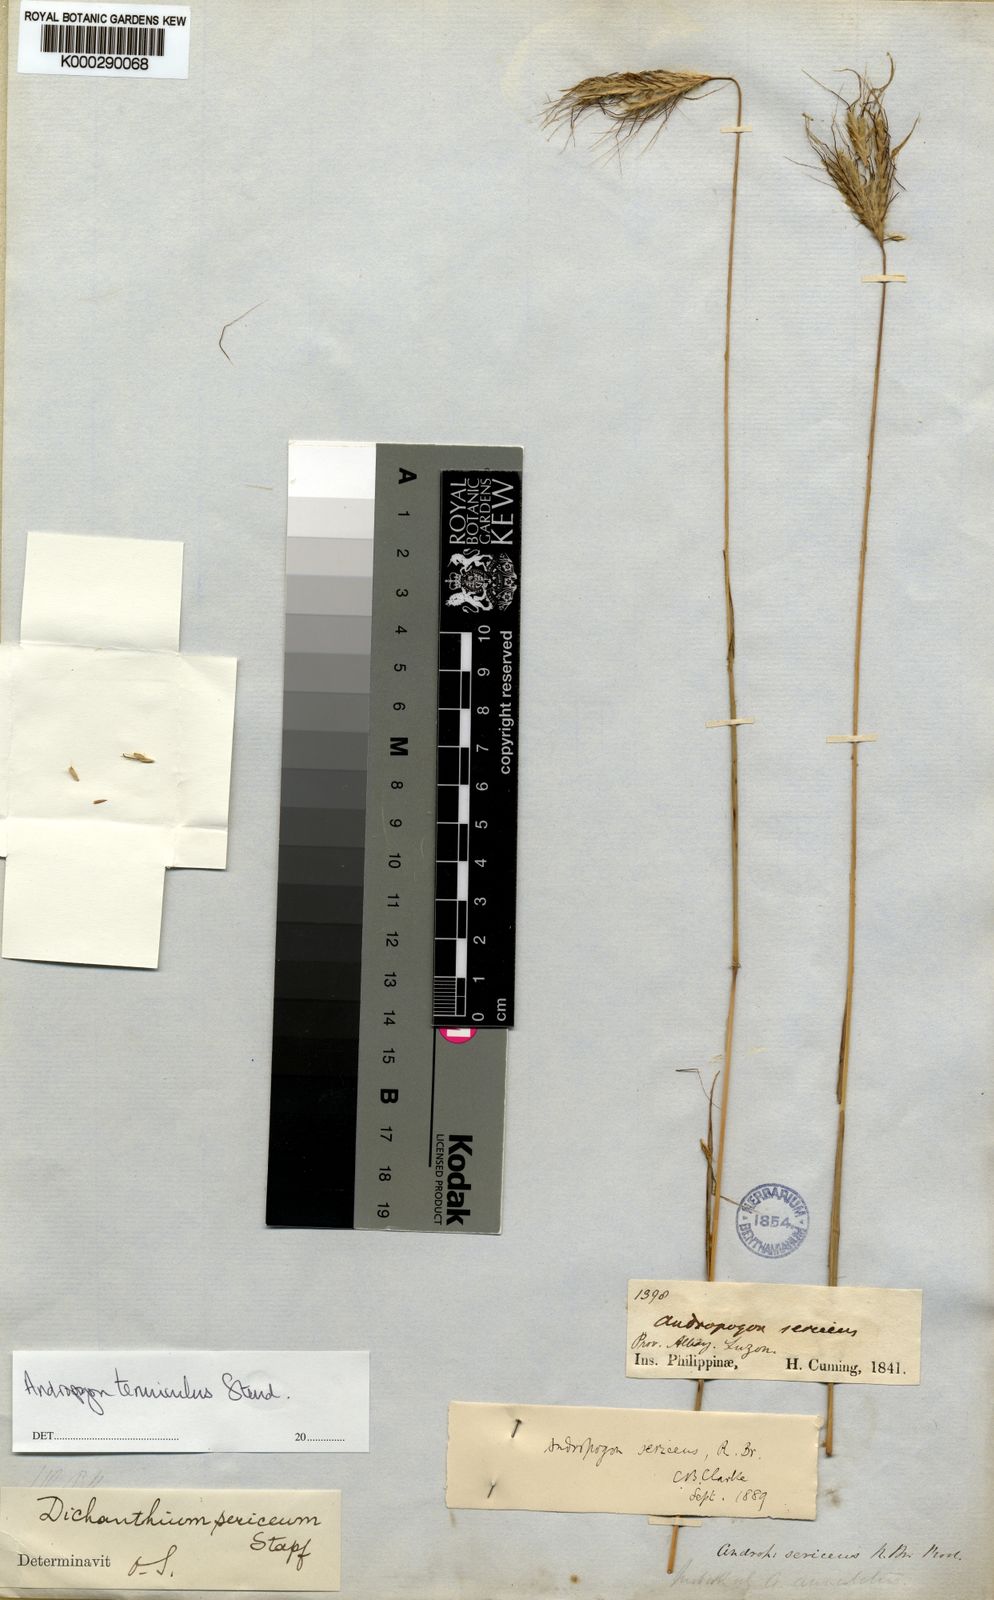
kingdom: Plantae
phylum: Tracheophyta
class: Liliopsida
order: Poales
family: Poaceae
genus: Dichanthium
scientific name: Dichanthium sericeum
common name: Silky bluestem
